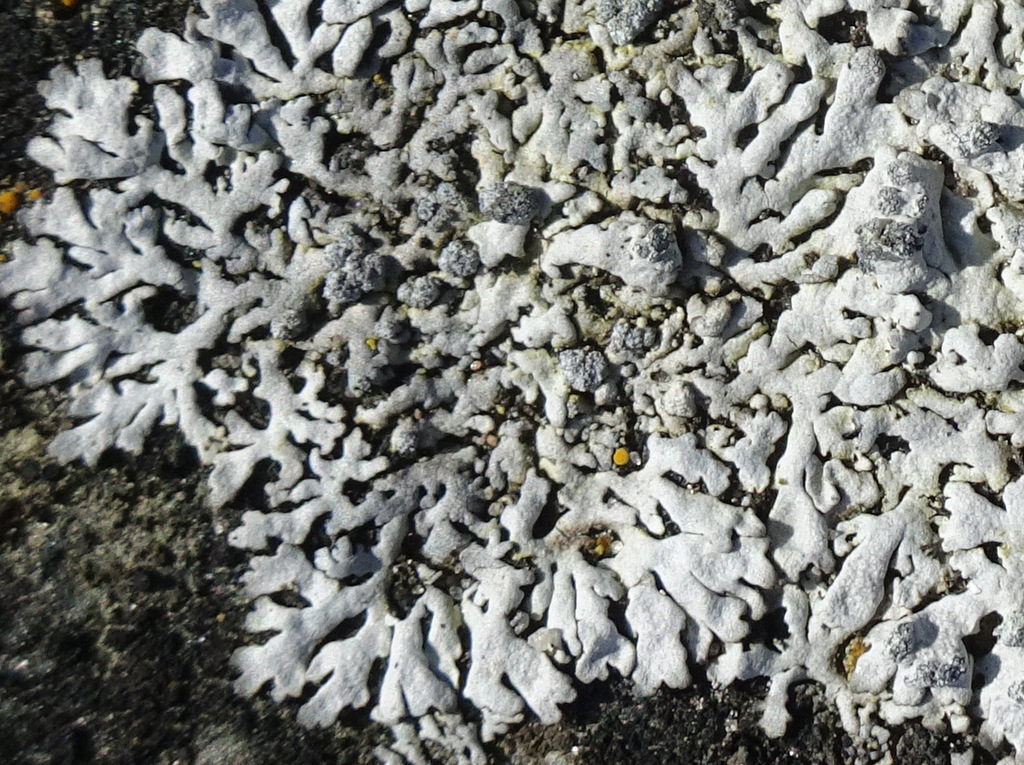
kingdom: Fungi
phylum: Ascomycota
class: Lecanoromycetes
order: Caliciales
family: Physciaceae
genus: Physcia
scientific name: Physcia caesia
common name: blågrå rosetlav
